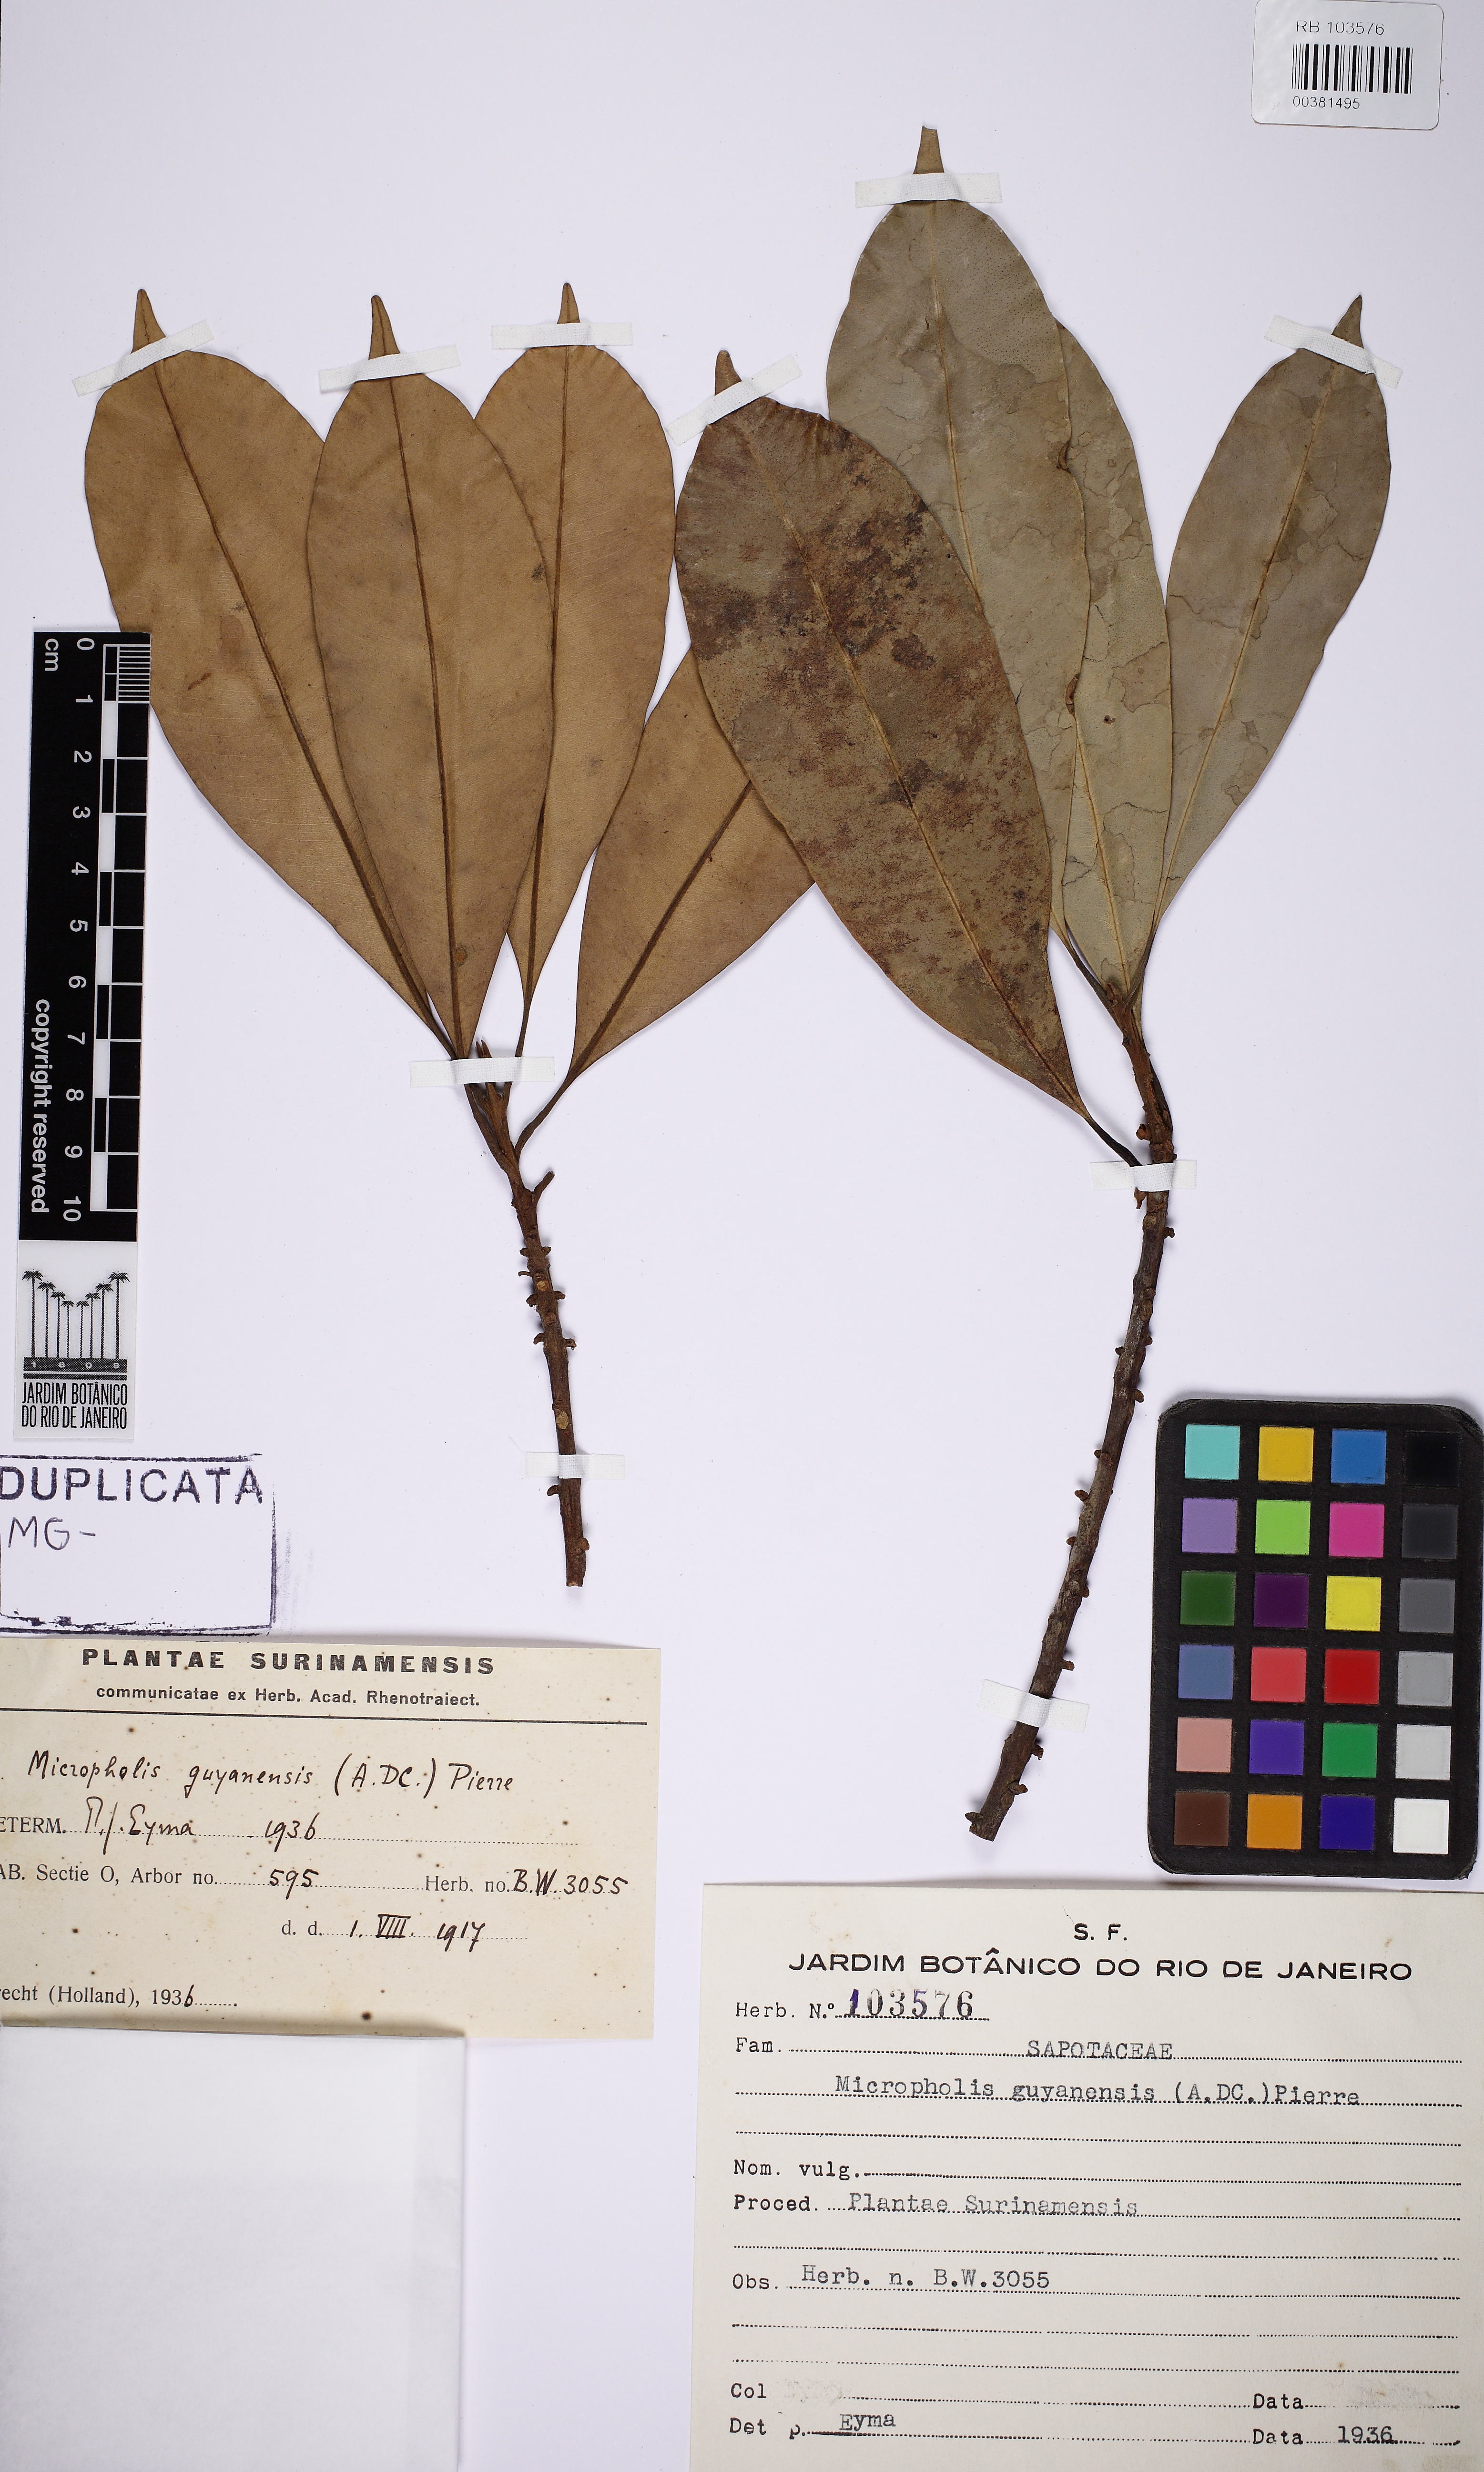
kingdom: Plantae
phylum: Tracheophyta
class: Magnoliopsida
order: Ericales
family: Sapotaceae
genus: Micropholis
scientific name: Micropholis guyanensis
